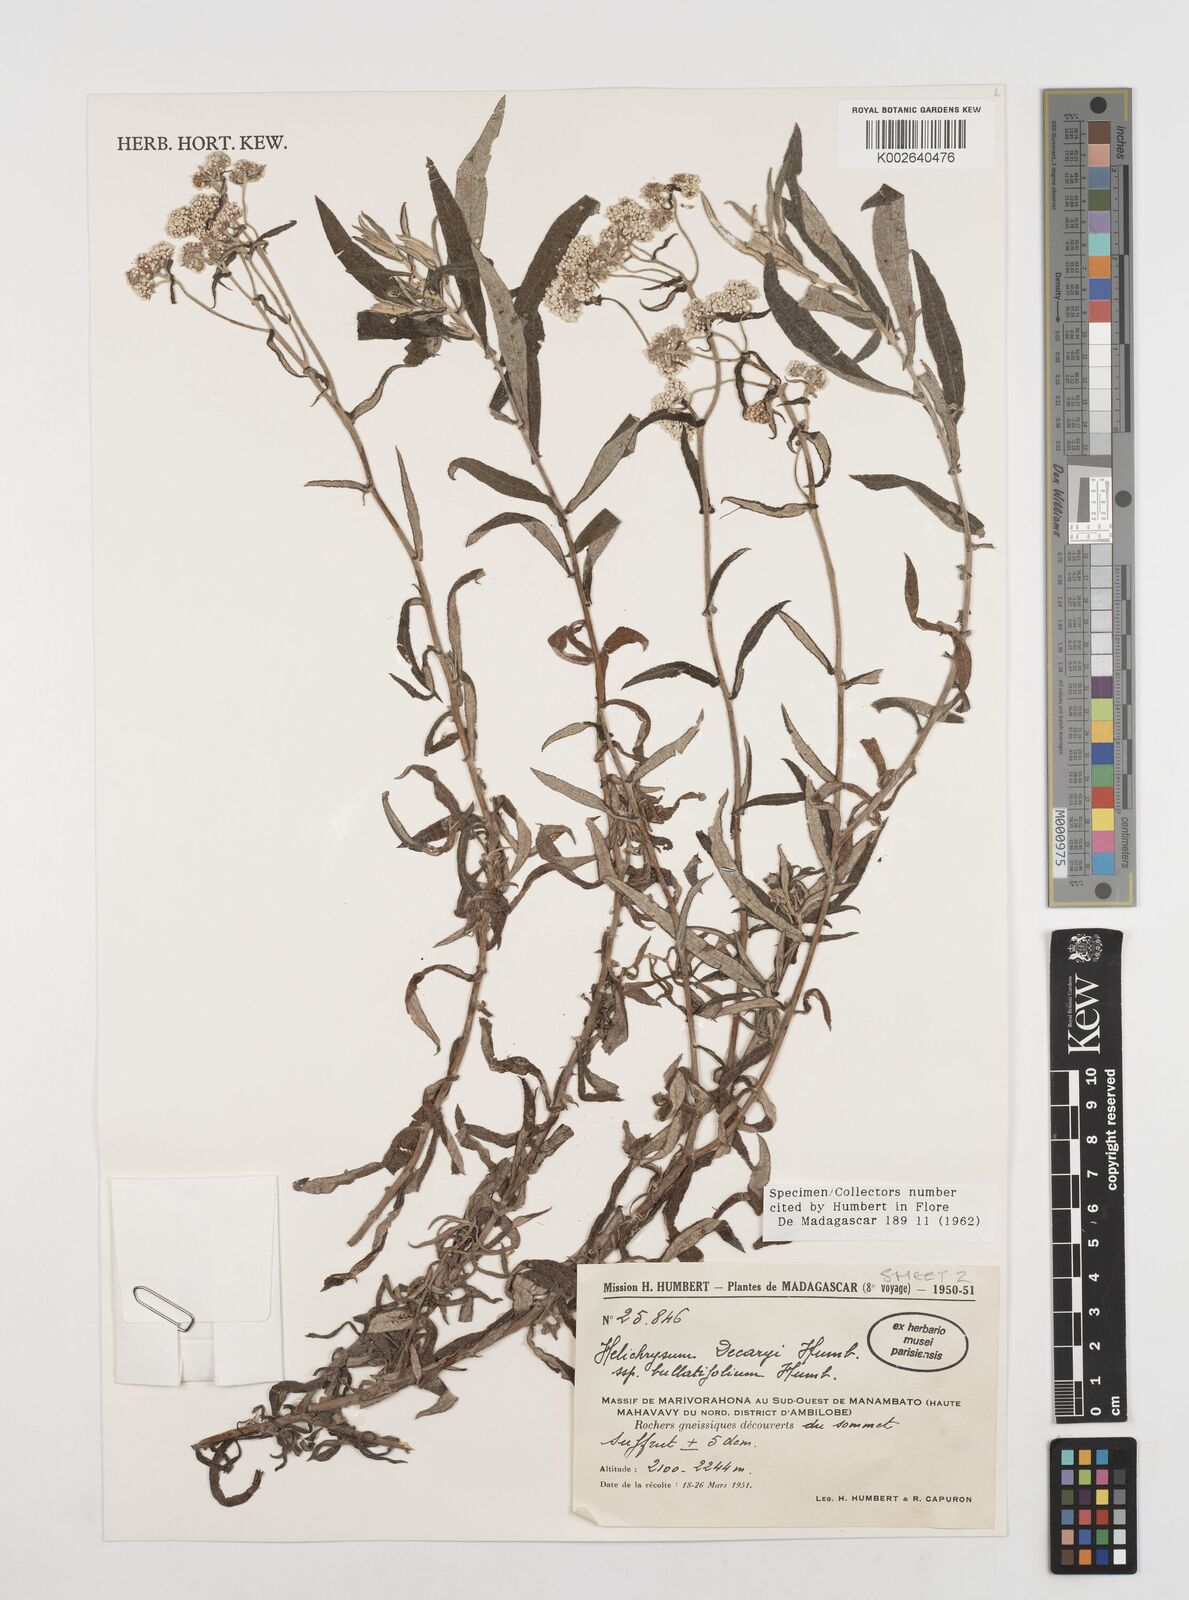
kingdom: Plantae
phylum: Tracheophyta
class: Magnoliopsida
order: Asterales
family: Asteraceae
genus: Helichrysum
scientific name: Helichrysum decaryi
